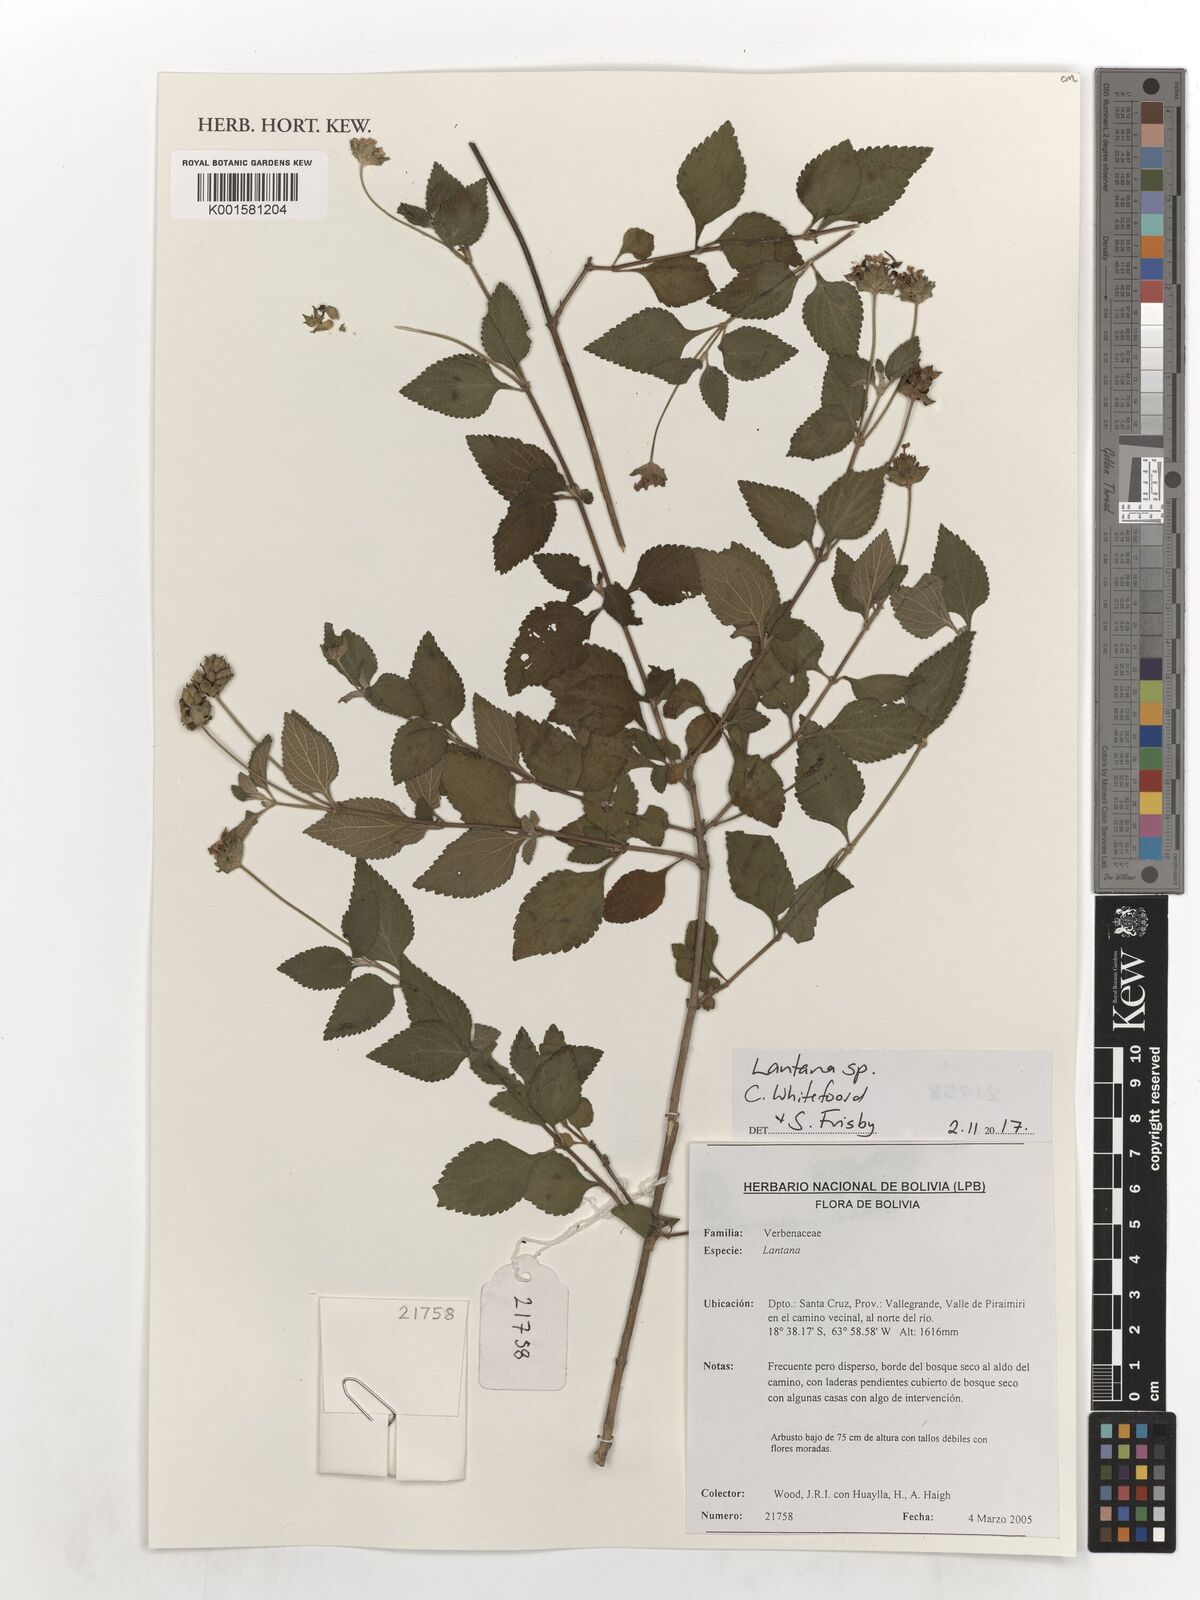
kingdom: Plantae
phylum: Tracheophyta
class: Magnoliopsida
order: Lamiales
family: Verbenaceae
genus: Lantana
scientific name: Lantana
